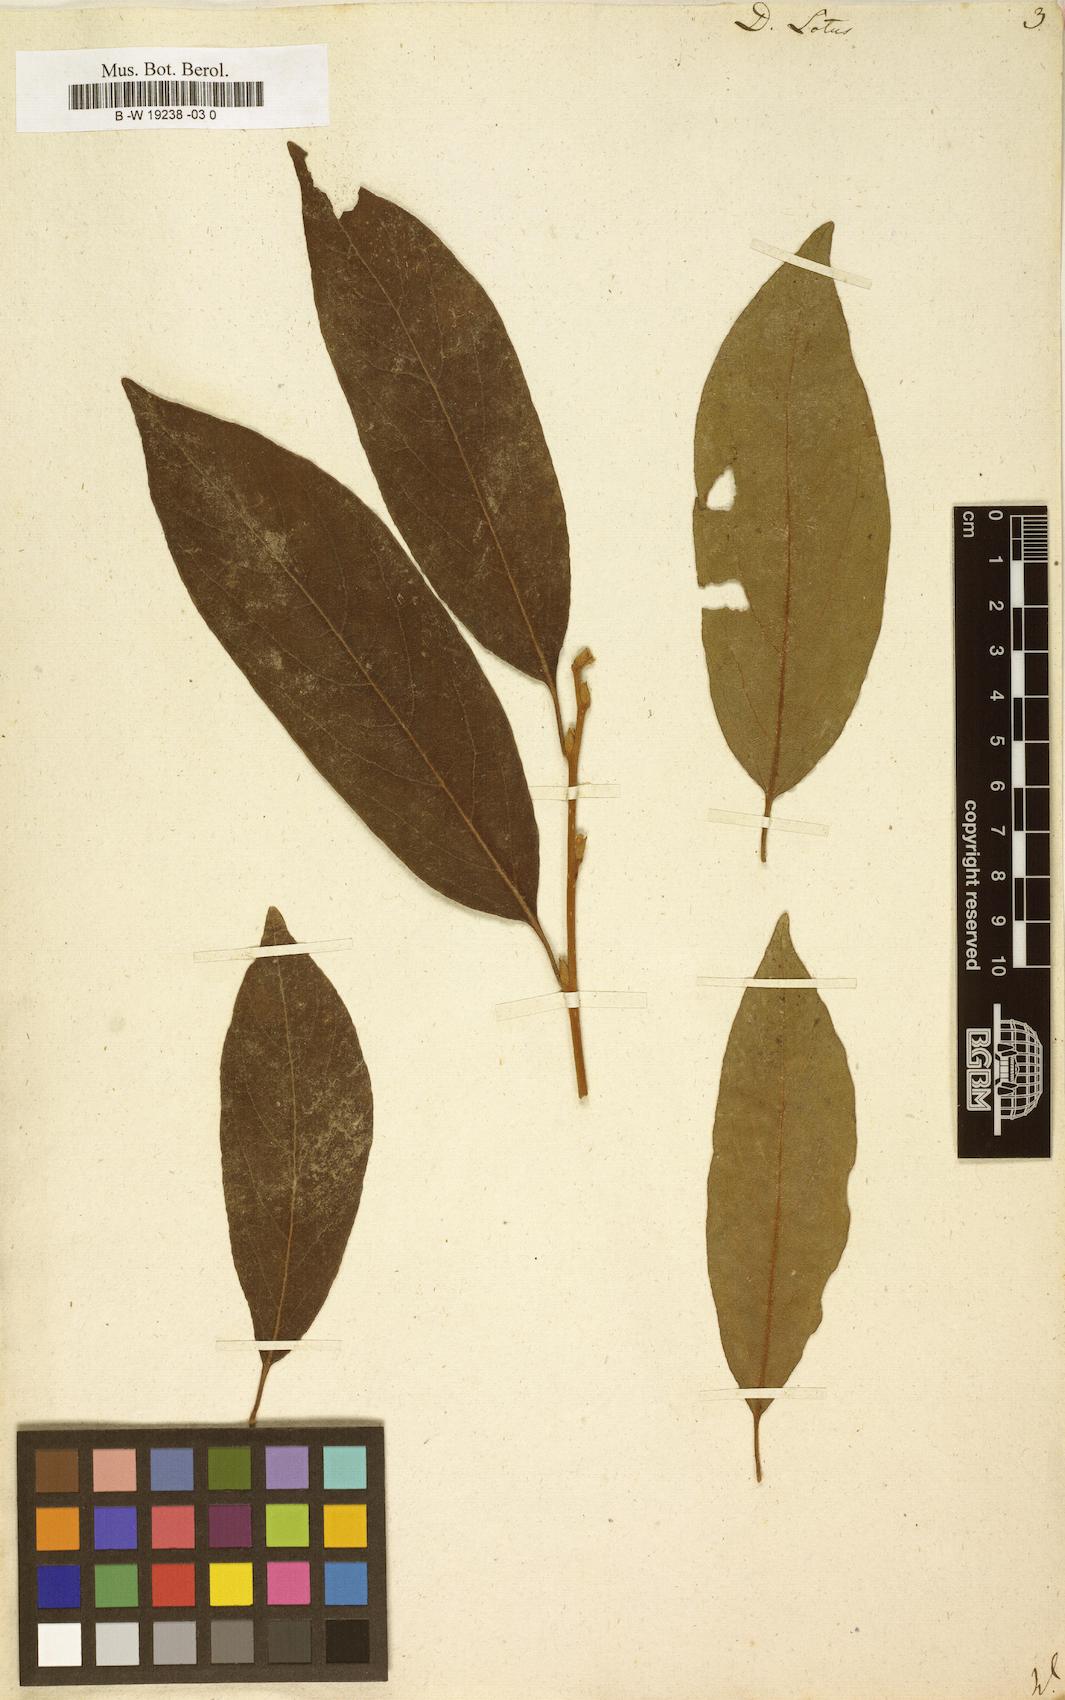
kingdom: Plantae
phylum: Tracheophyta
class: Magnoliopsida
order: Ericales
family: Ebenaceae
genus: Diospyros
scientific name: Diospyros lotus
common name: Date-plum
